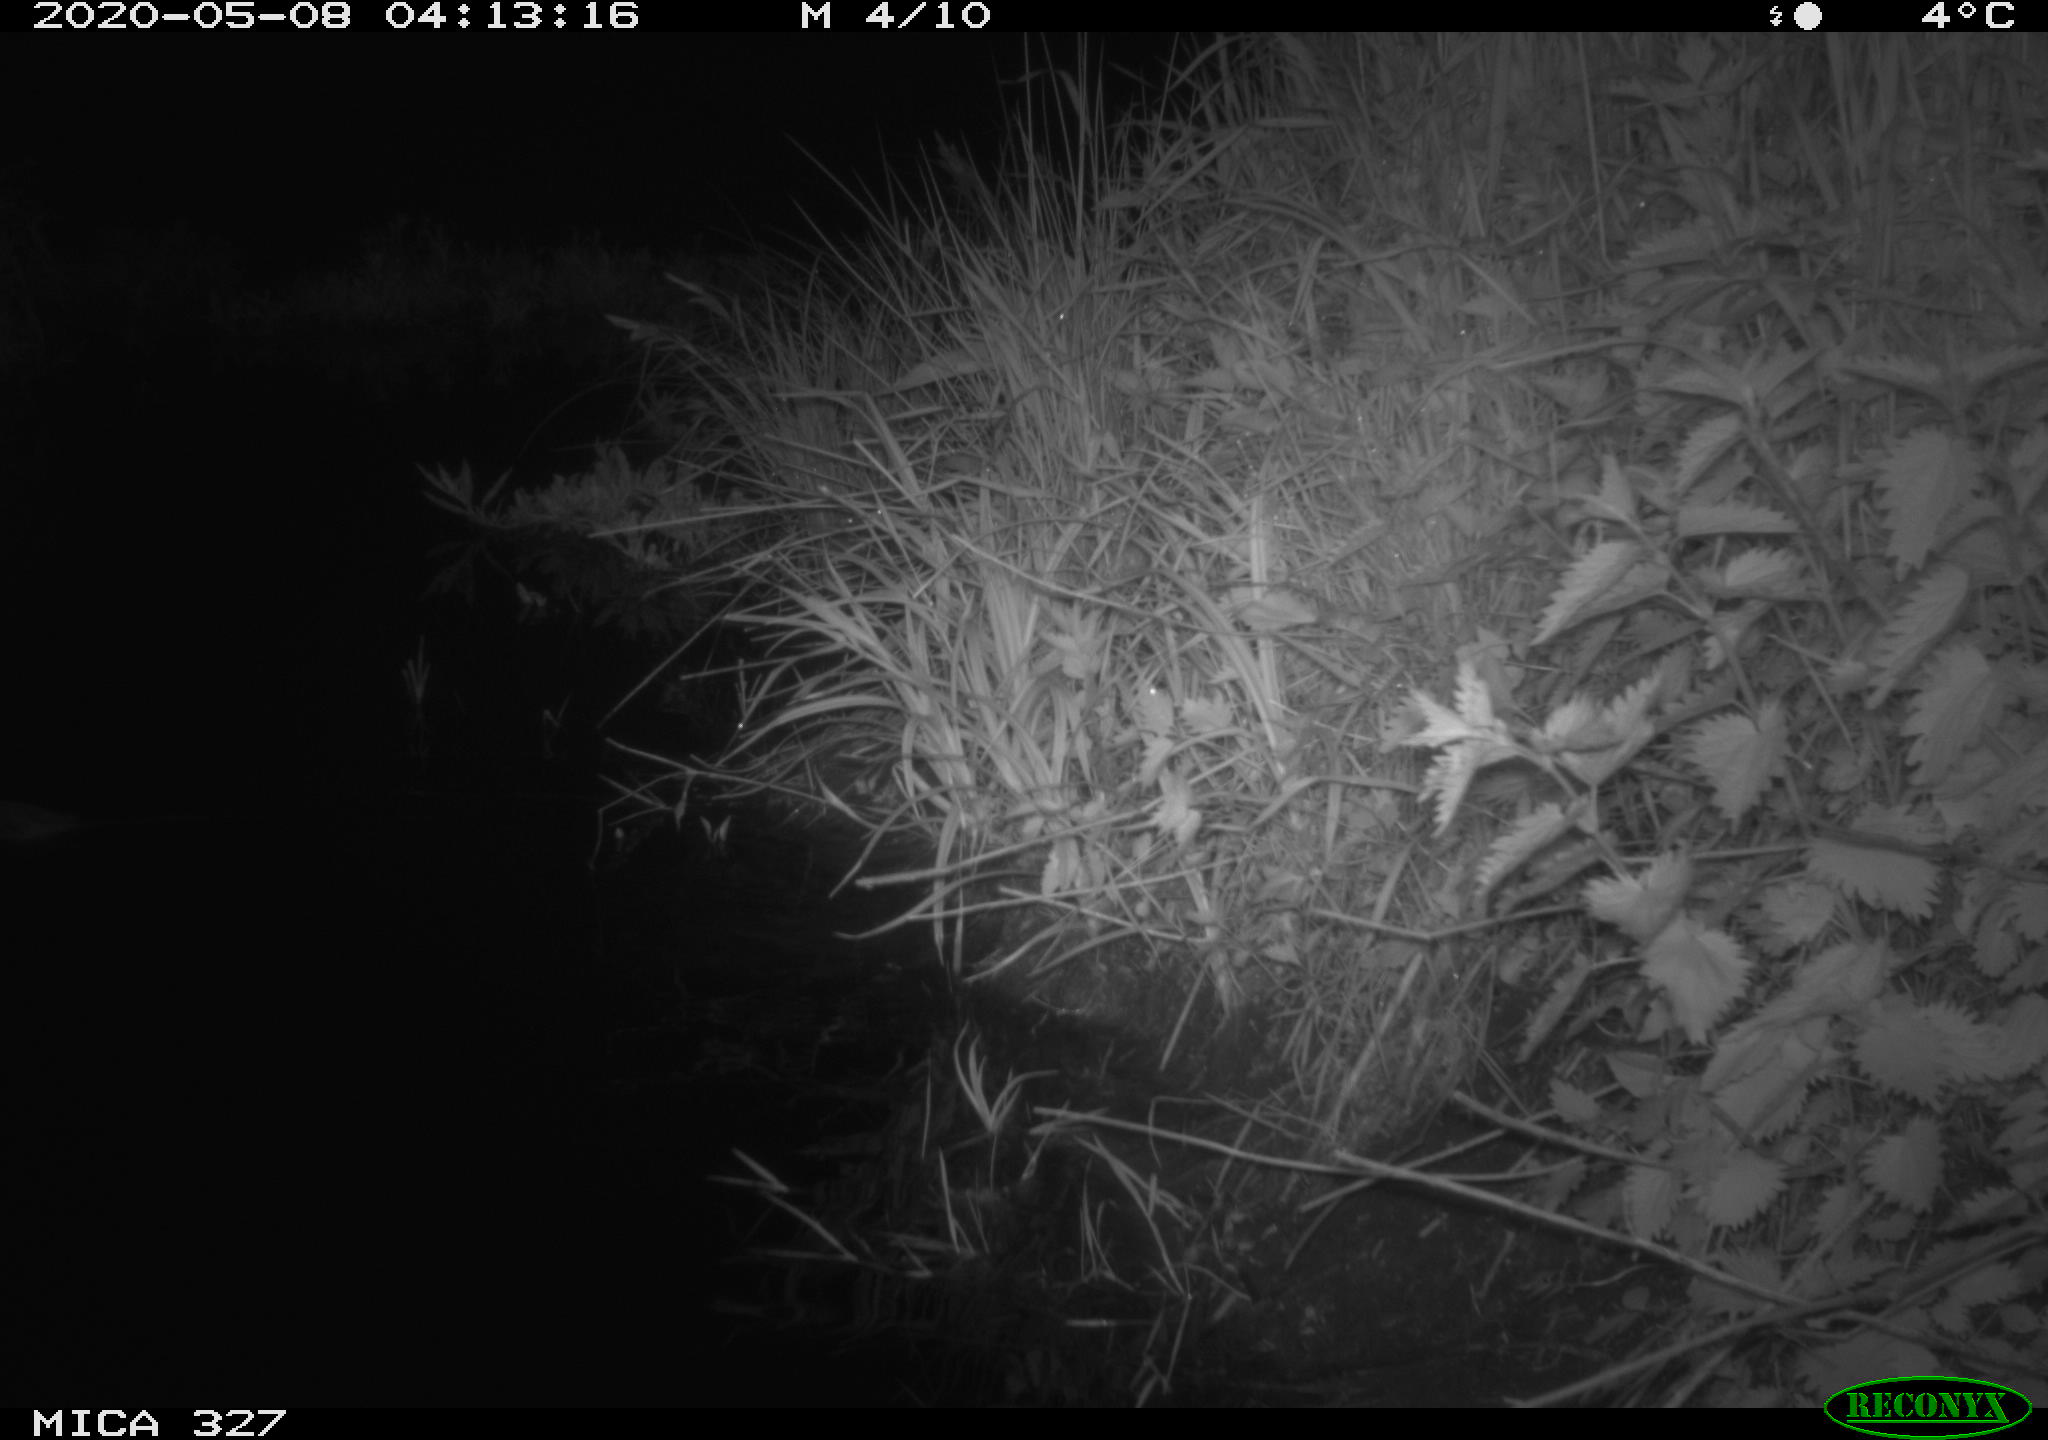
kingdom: Animalia
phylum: Chordata
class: Mammalia
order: Rodentia
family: Myocastoridae
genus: Myocastor
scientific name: Myocastor coypus
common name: Coypu
